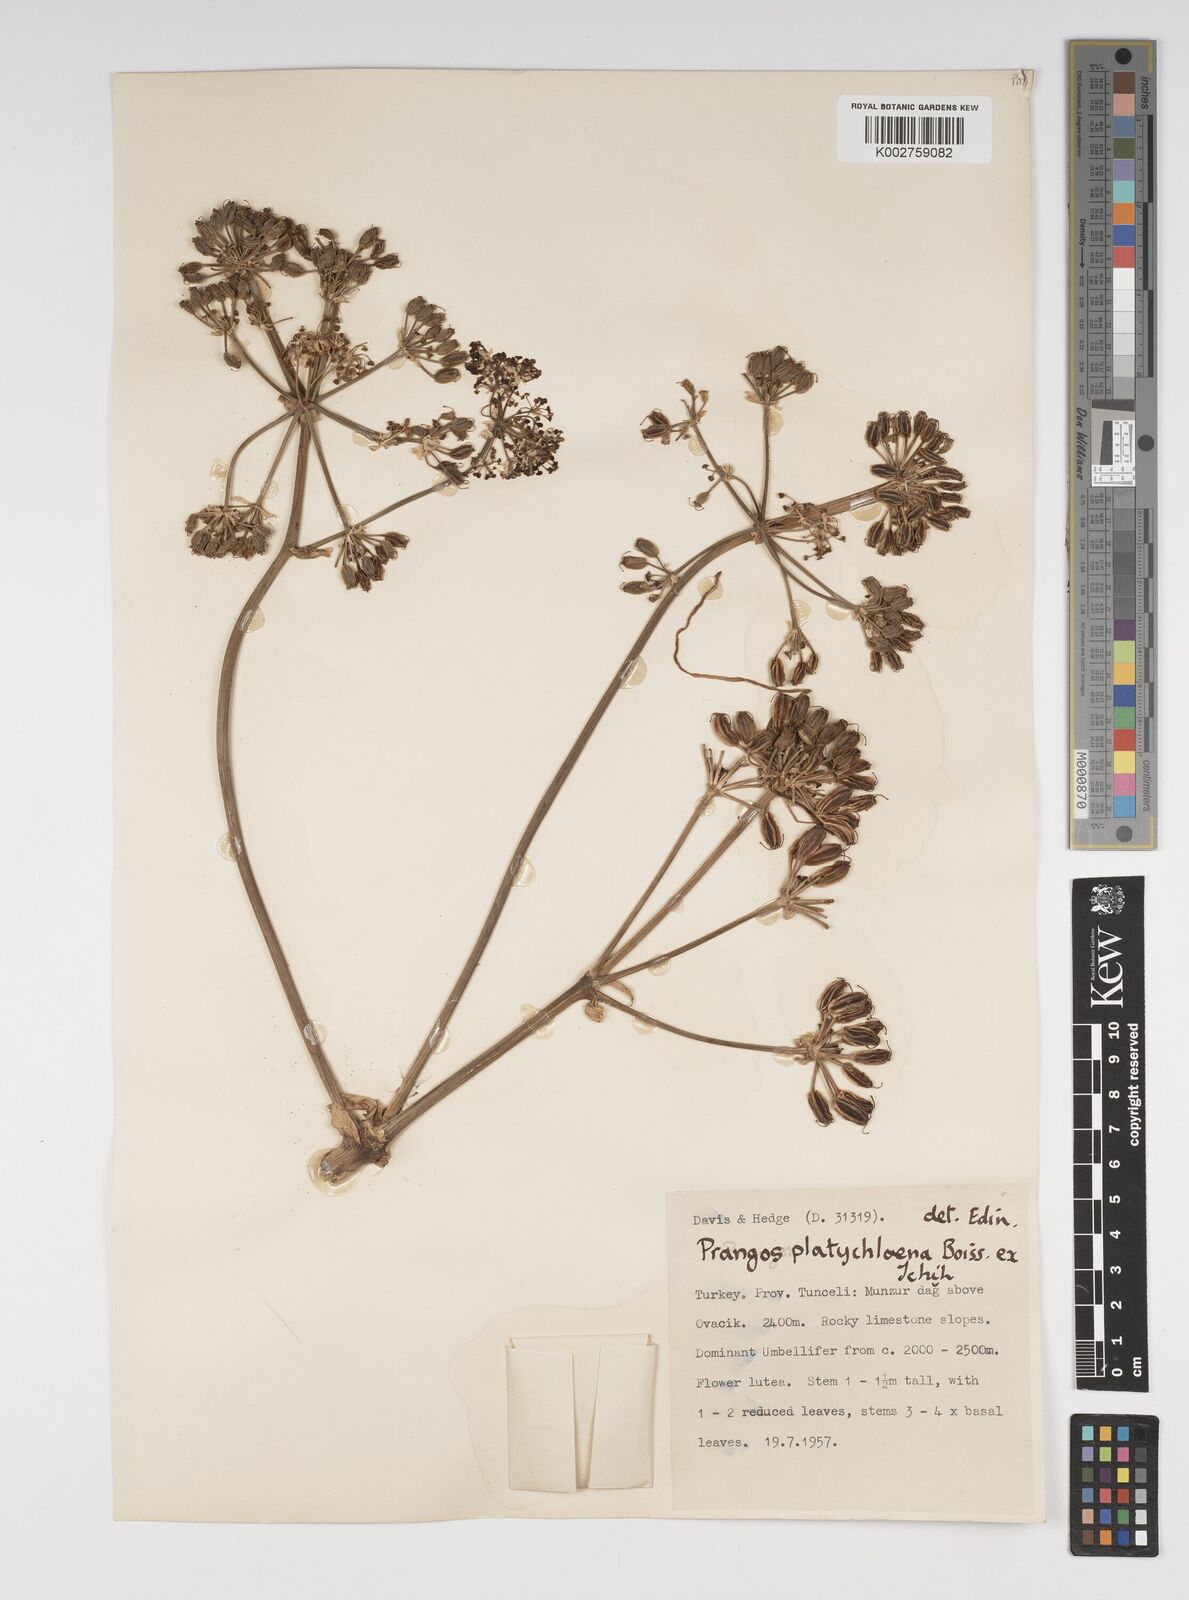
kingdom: Plantae
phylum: Tracheophyta
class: Magnoliopsida
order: Apiales
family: Apiaceae
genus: Prangos
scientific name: Prangos platychlaena
